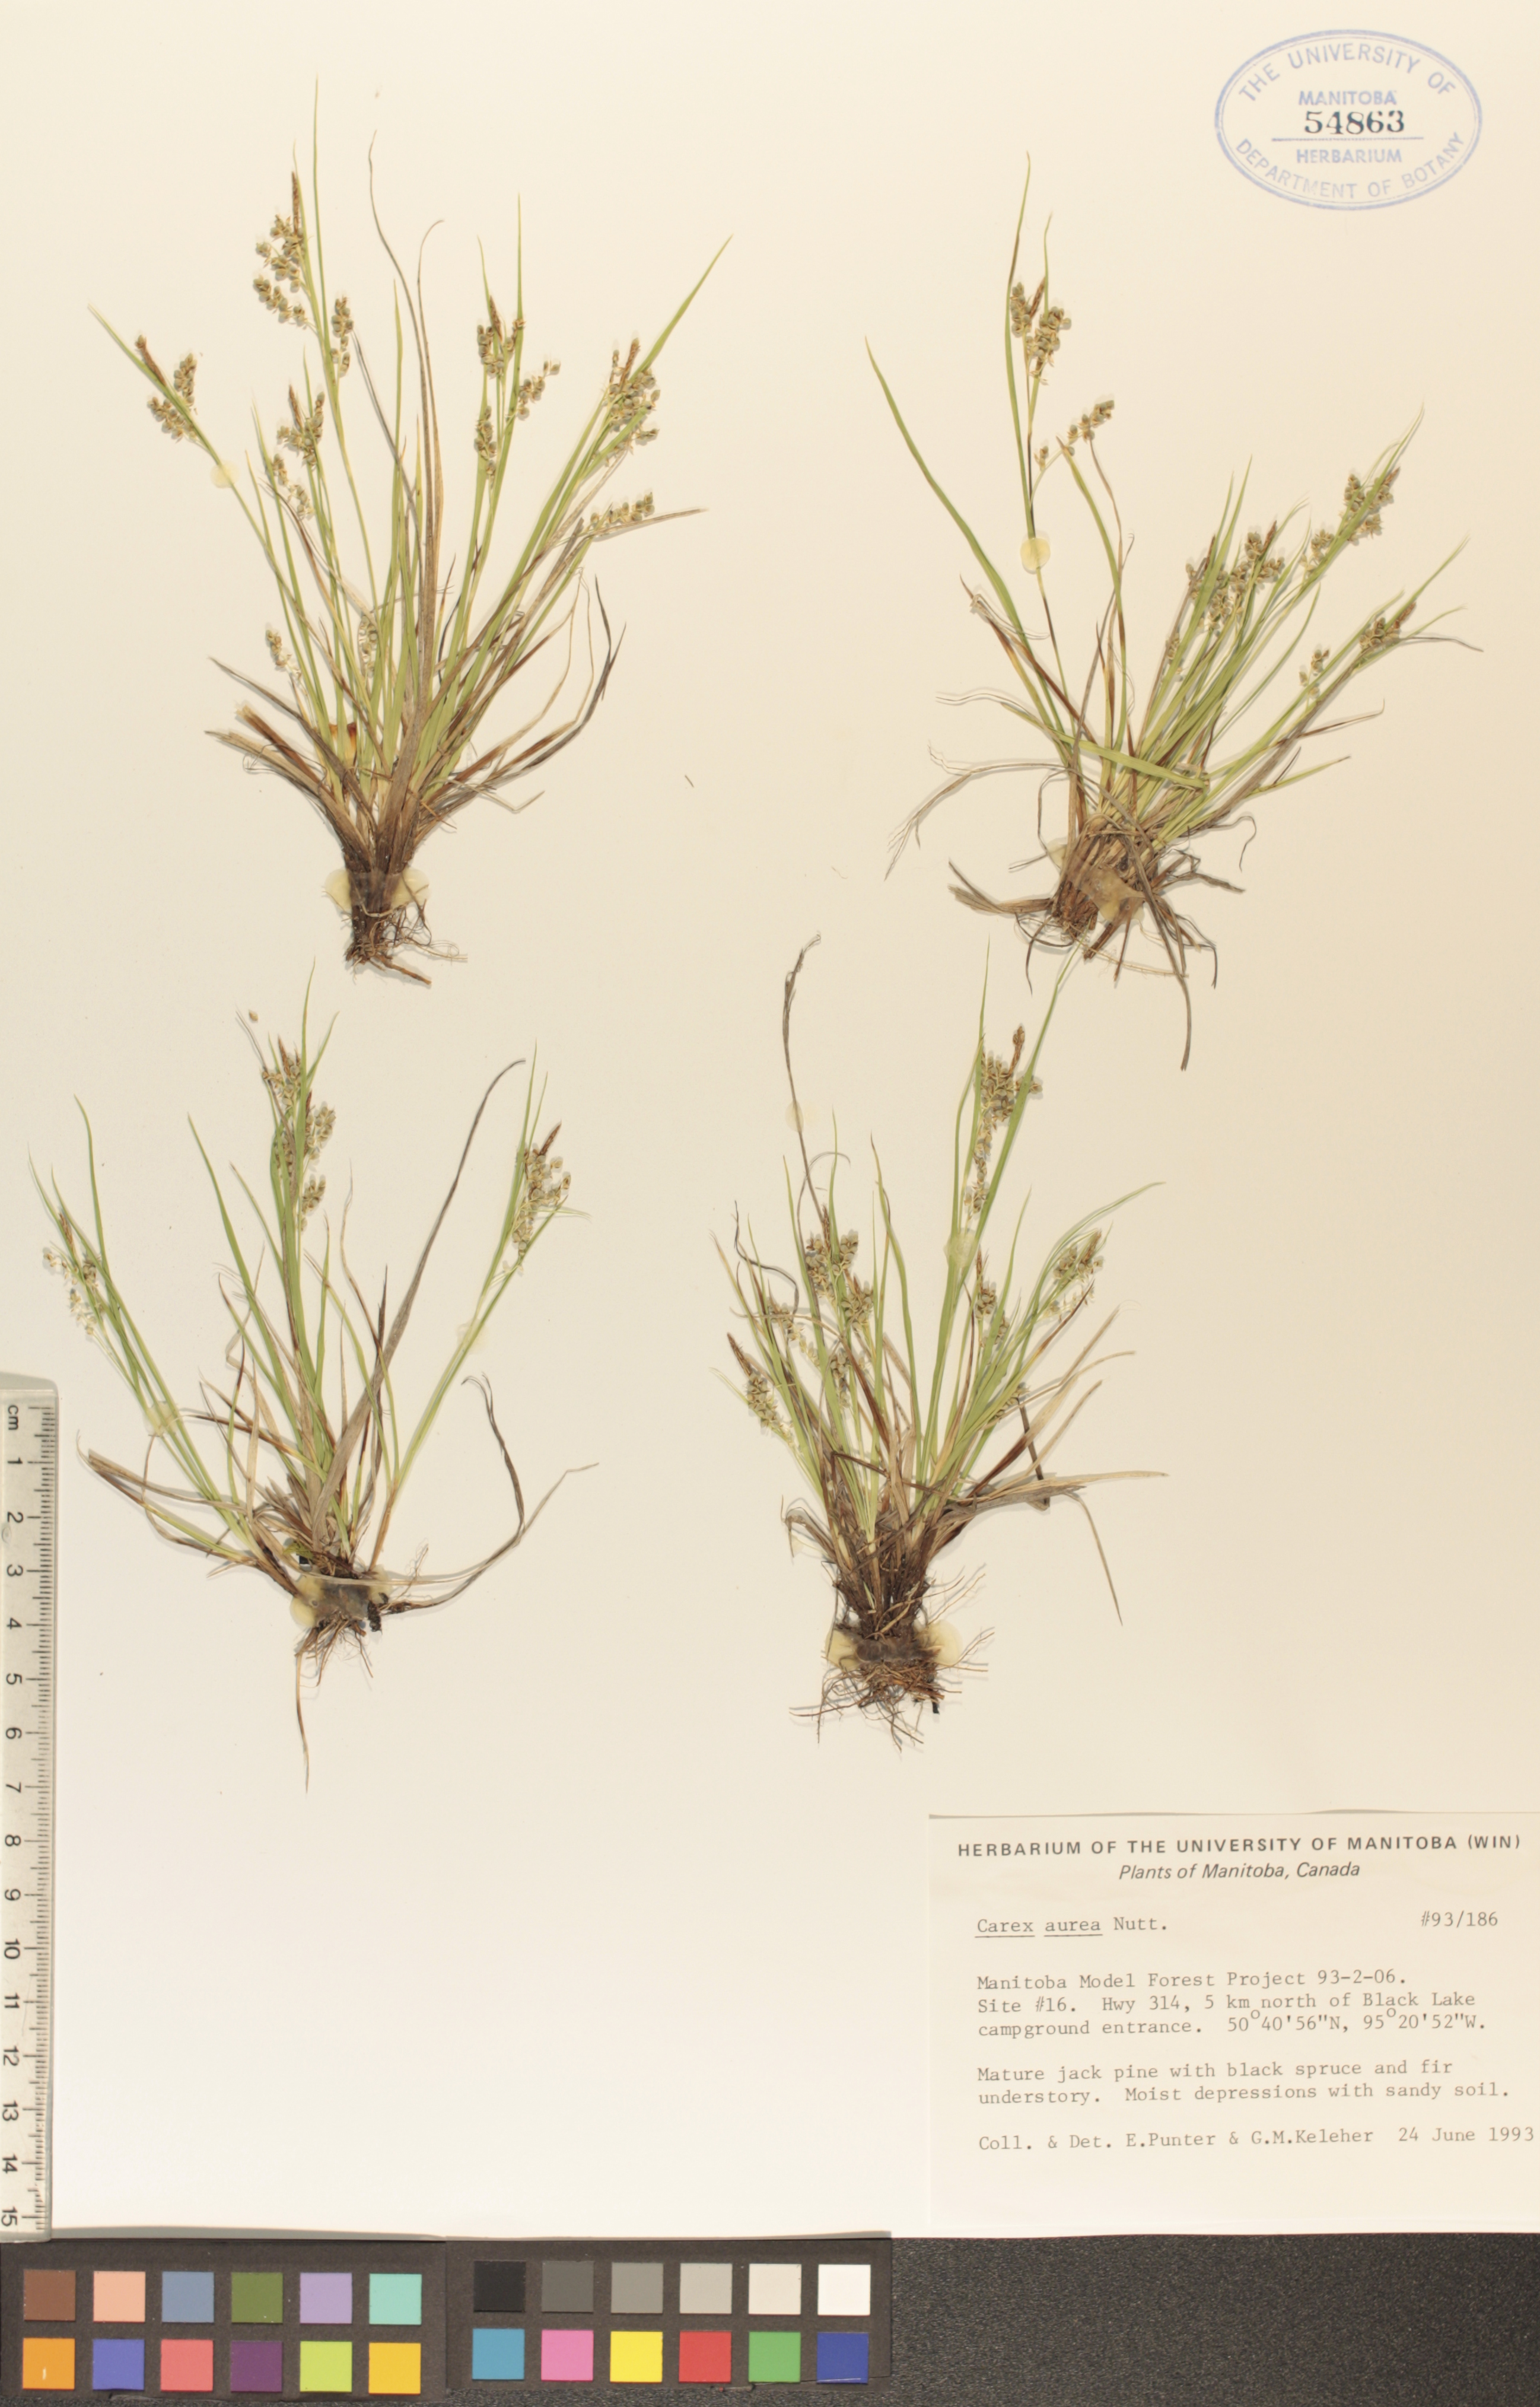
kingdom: Plantae
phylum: Tracheophyta
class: Liliopsida
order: Poales
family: Cyperaceae
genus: Carex
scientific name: Carex aurea
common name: Golden sedge
